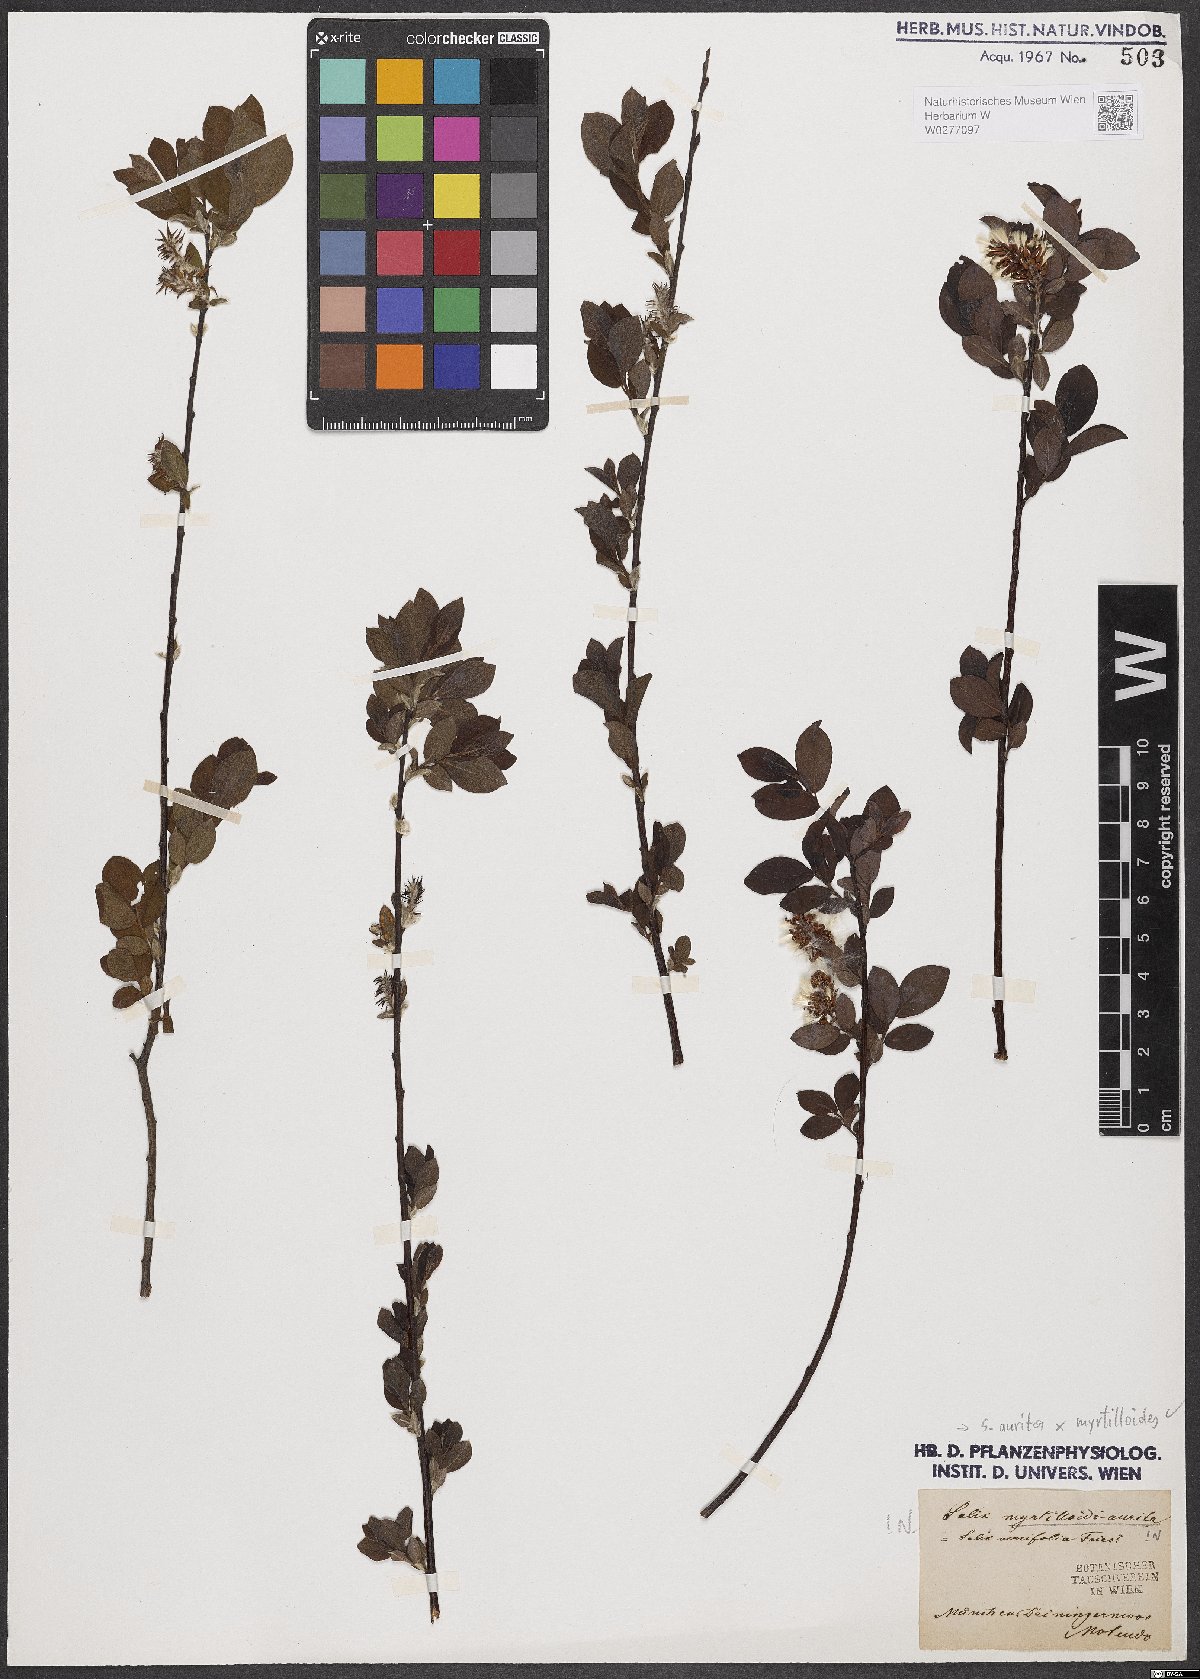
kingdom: Plantae
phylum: Tracheophyta
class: Magnoliopsida
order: Malpighiales
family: Salicaceae
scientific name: Salicaceae
